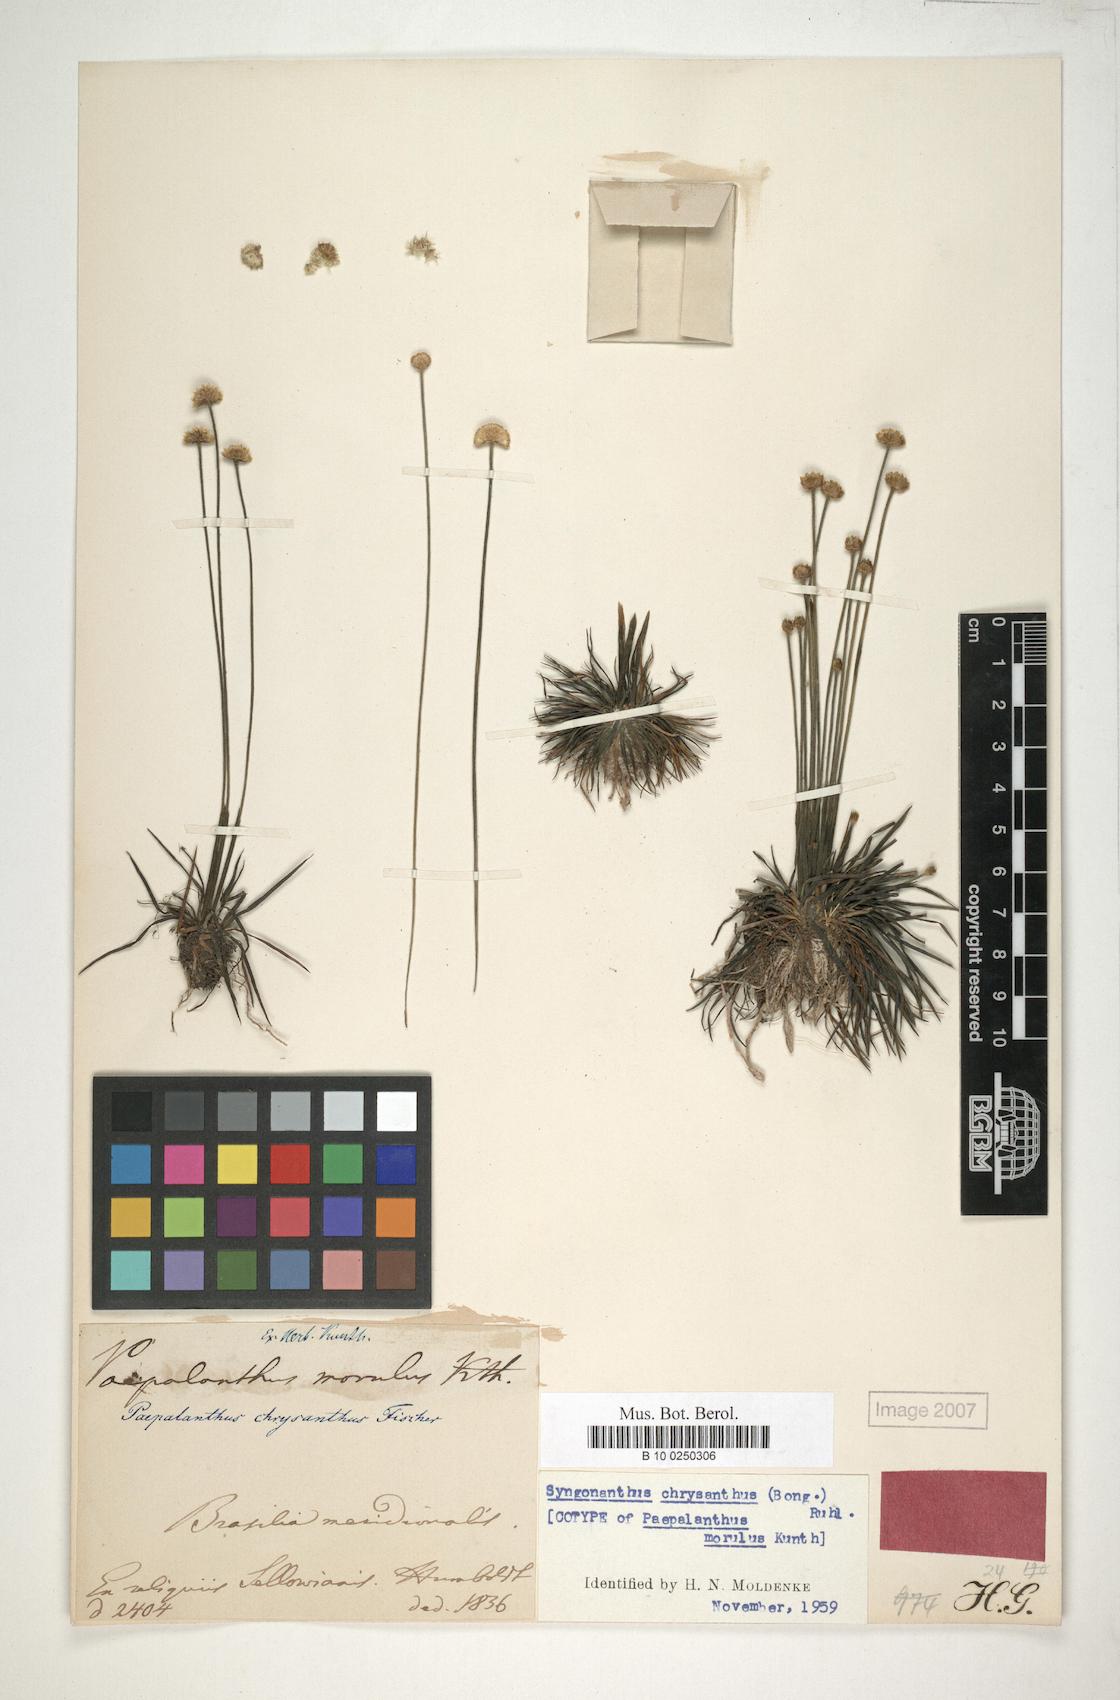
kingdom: Plantae
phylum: Tracheophyta
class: Liliopsida
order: Poales
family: Eriocaulaceae
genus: Syngonanthus
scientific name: Syngonanthus chrysanthus
